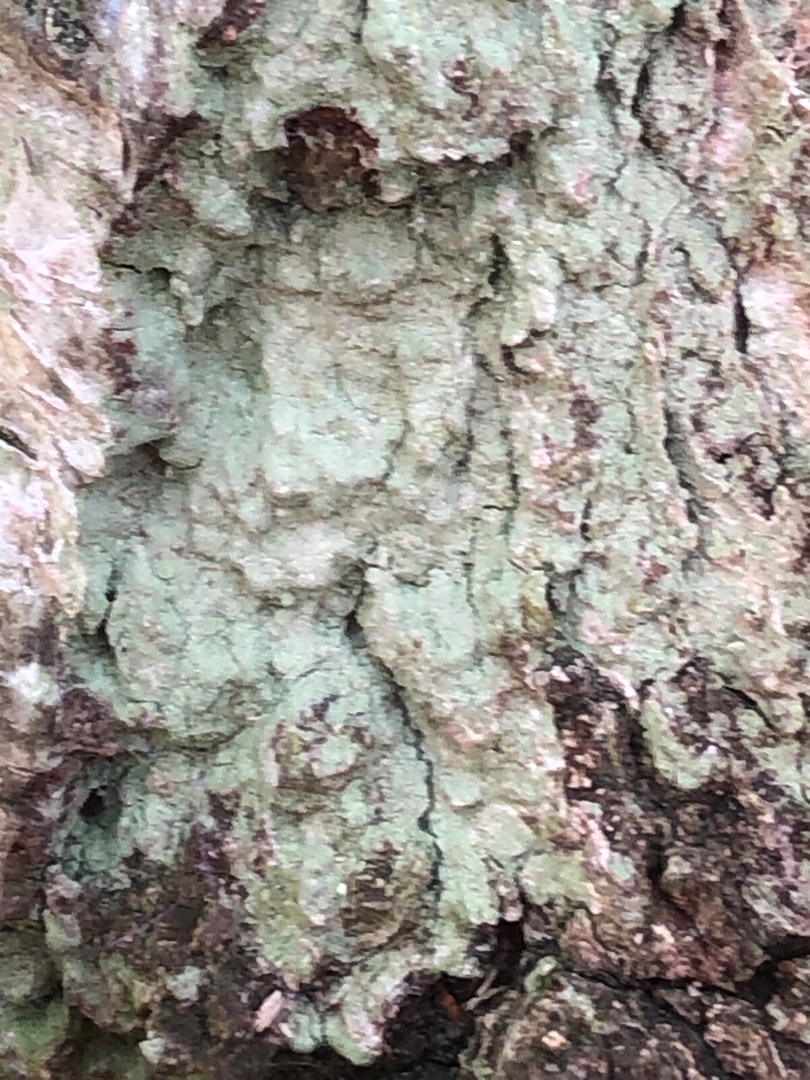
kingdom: Fungi
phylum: Ascomycota
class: Lecanoromycetes
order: Lecanorales
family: Stereocaulaceae
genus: Lepraria
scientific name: Lepraria
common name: Støvlav
